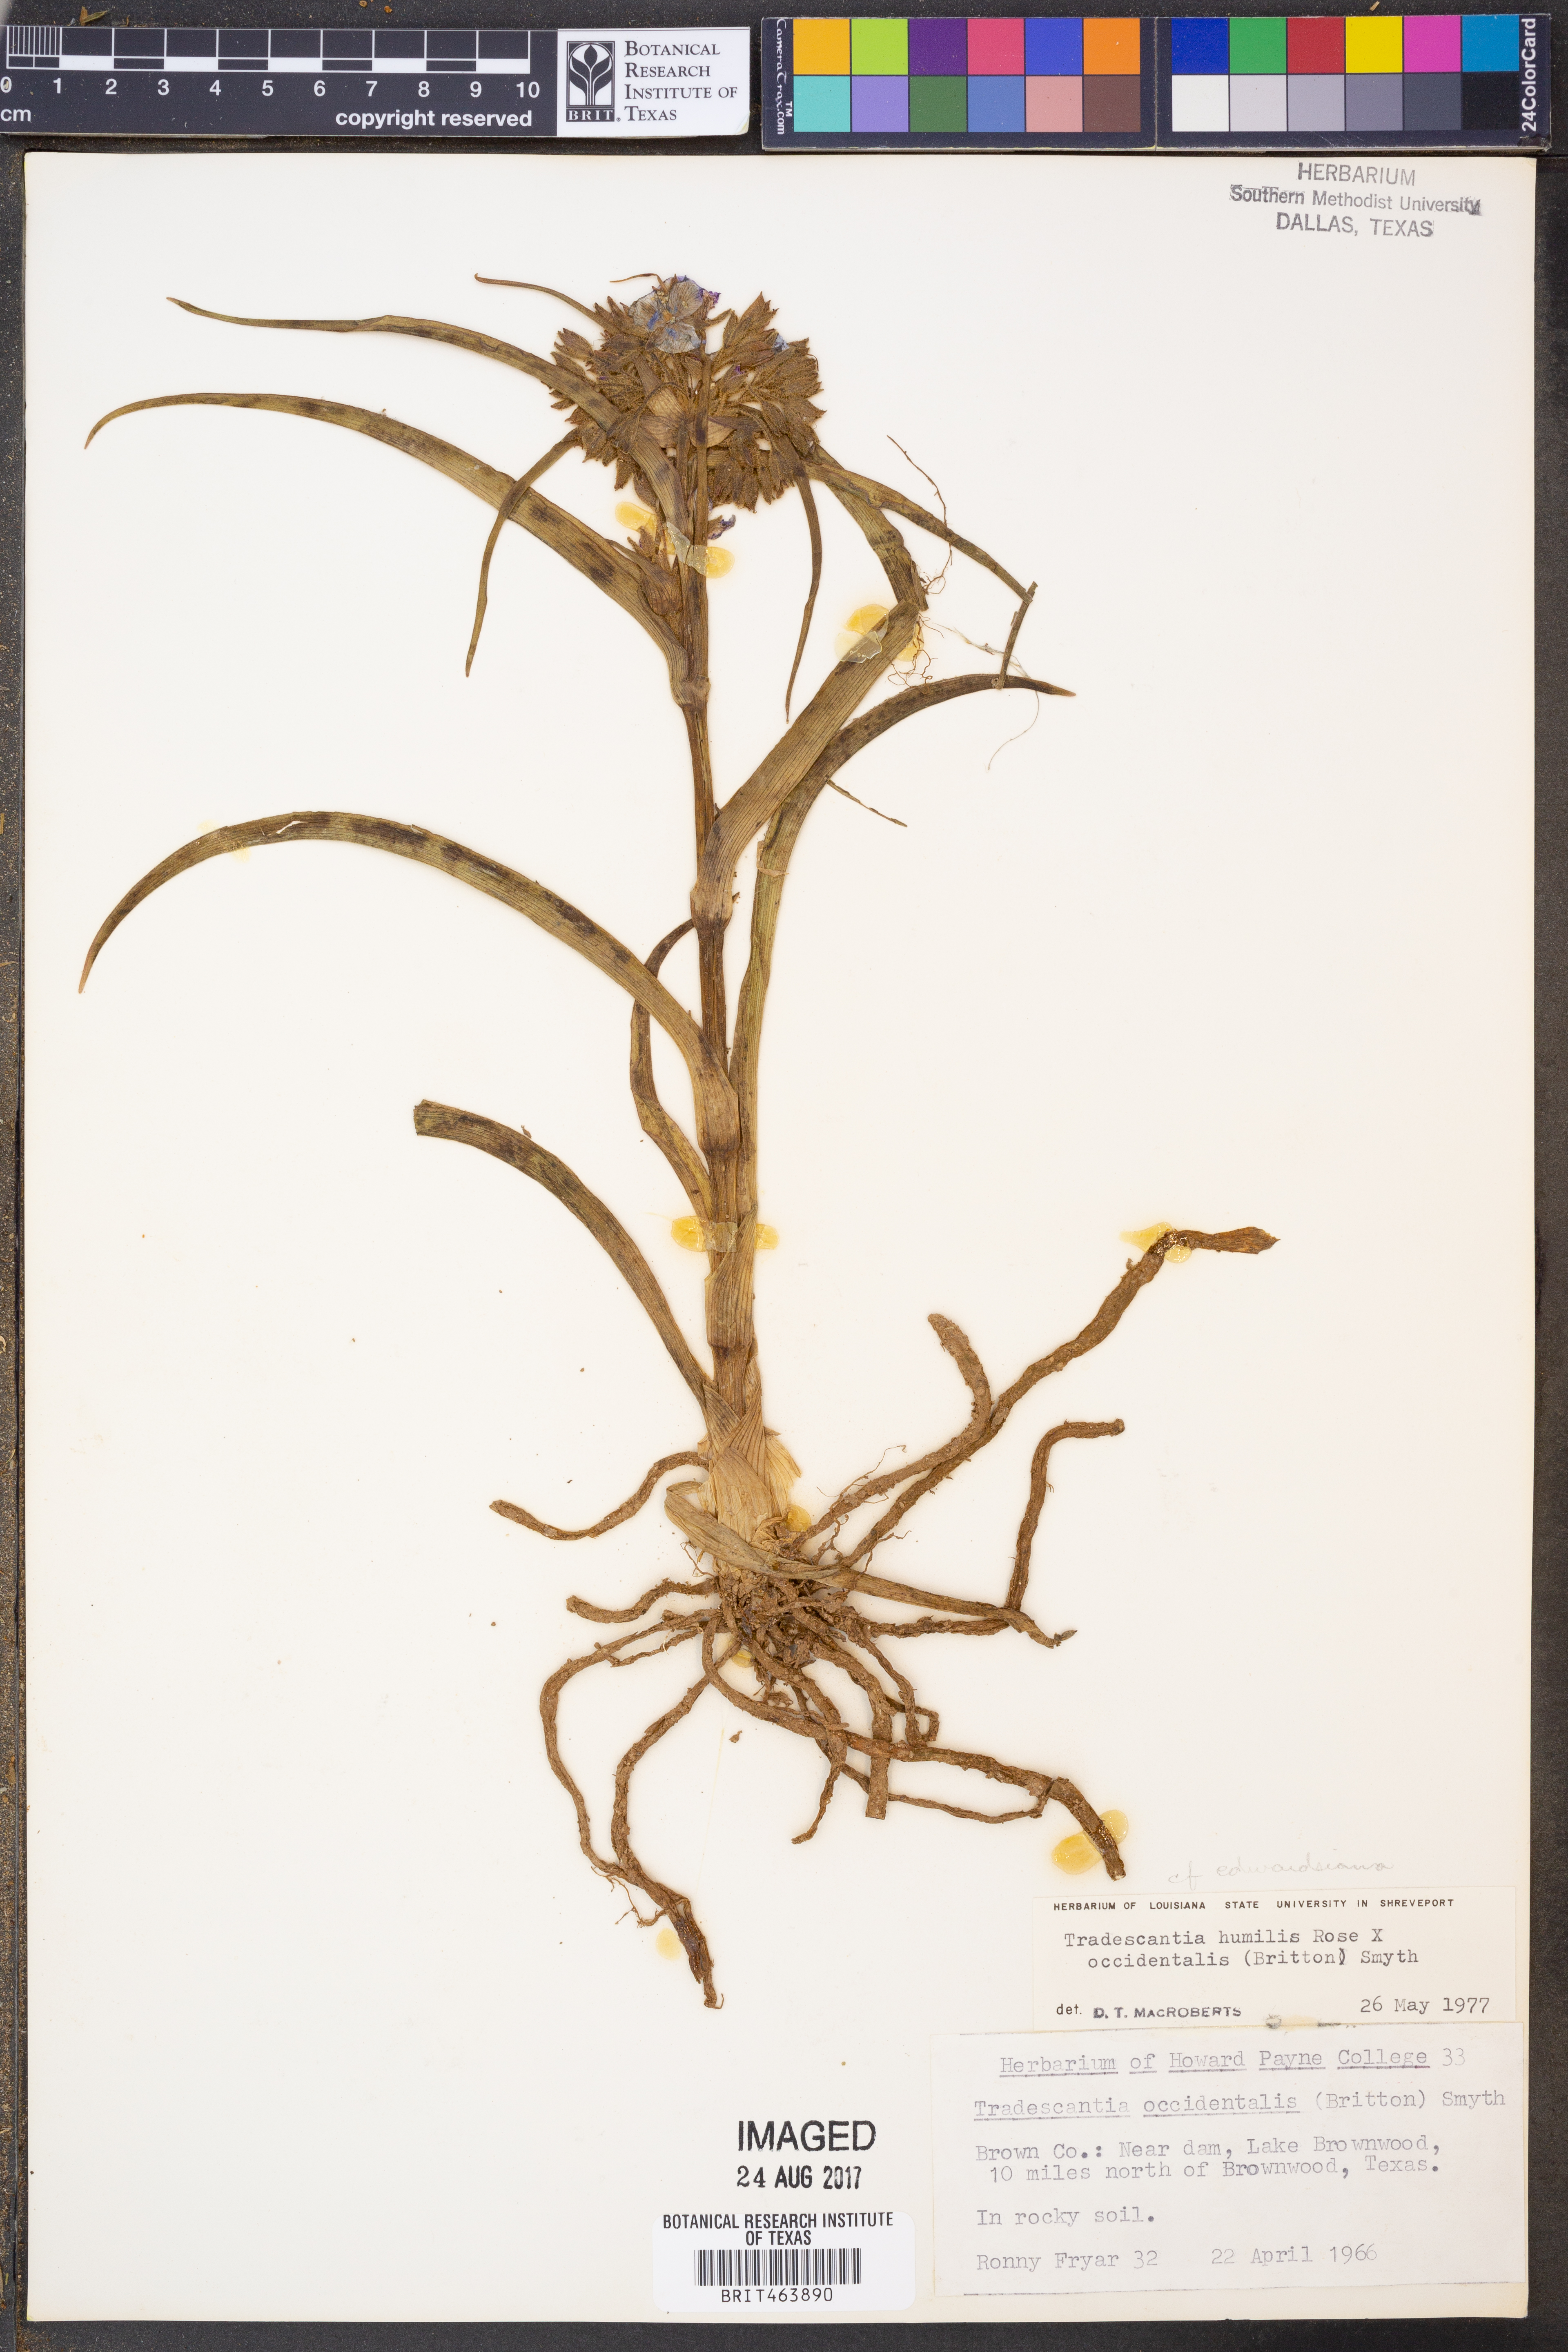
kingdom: Plantae
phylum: Tracheophyta
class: Liliopsida
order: Commelinales
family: Commelinaceae
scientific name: Commelinaceae
